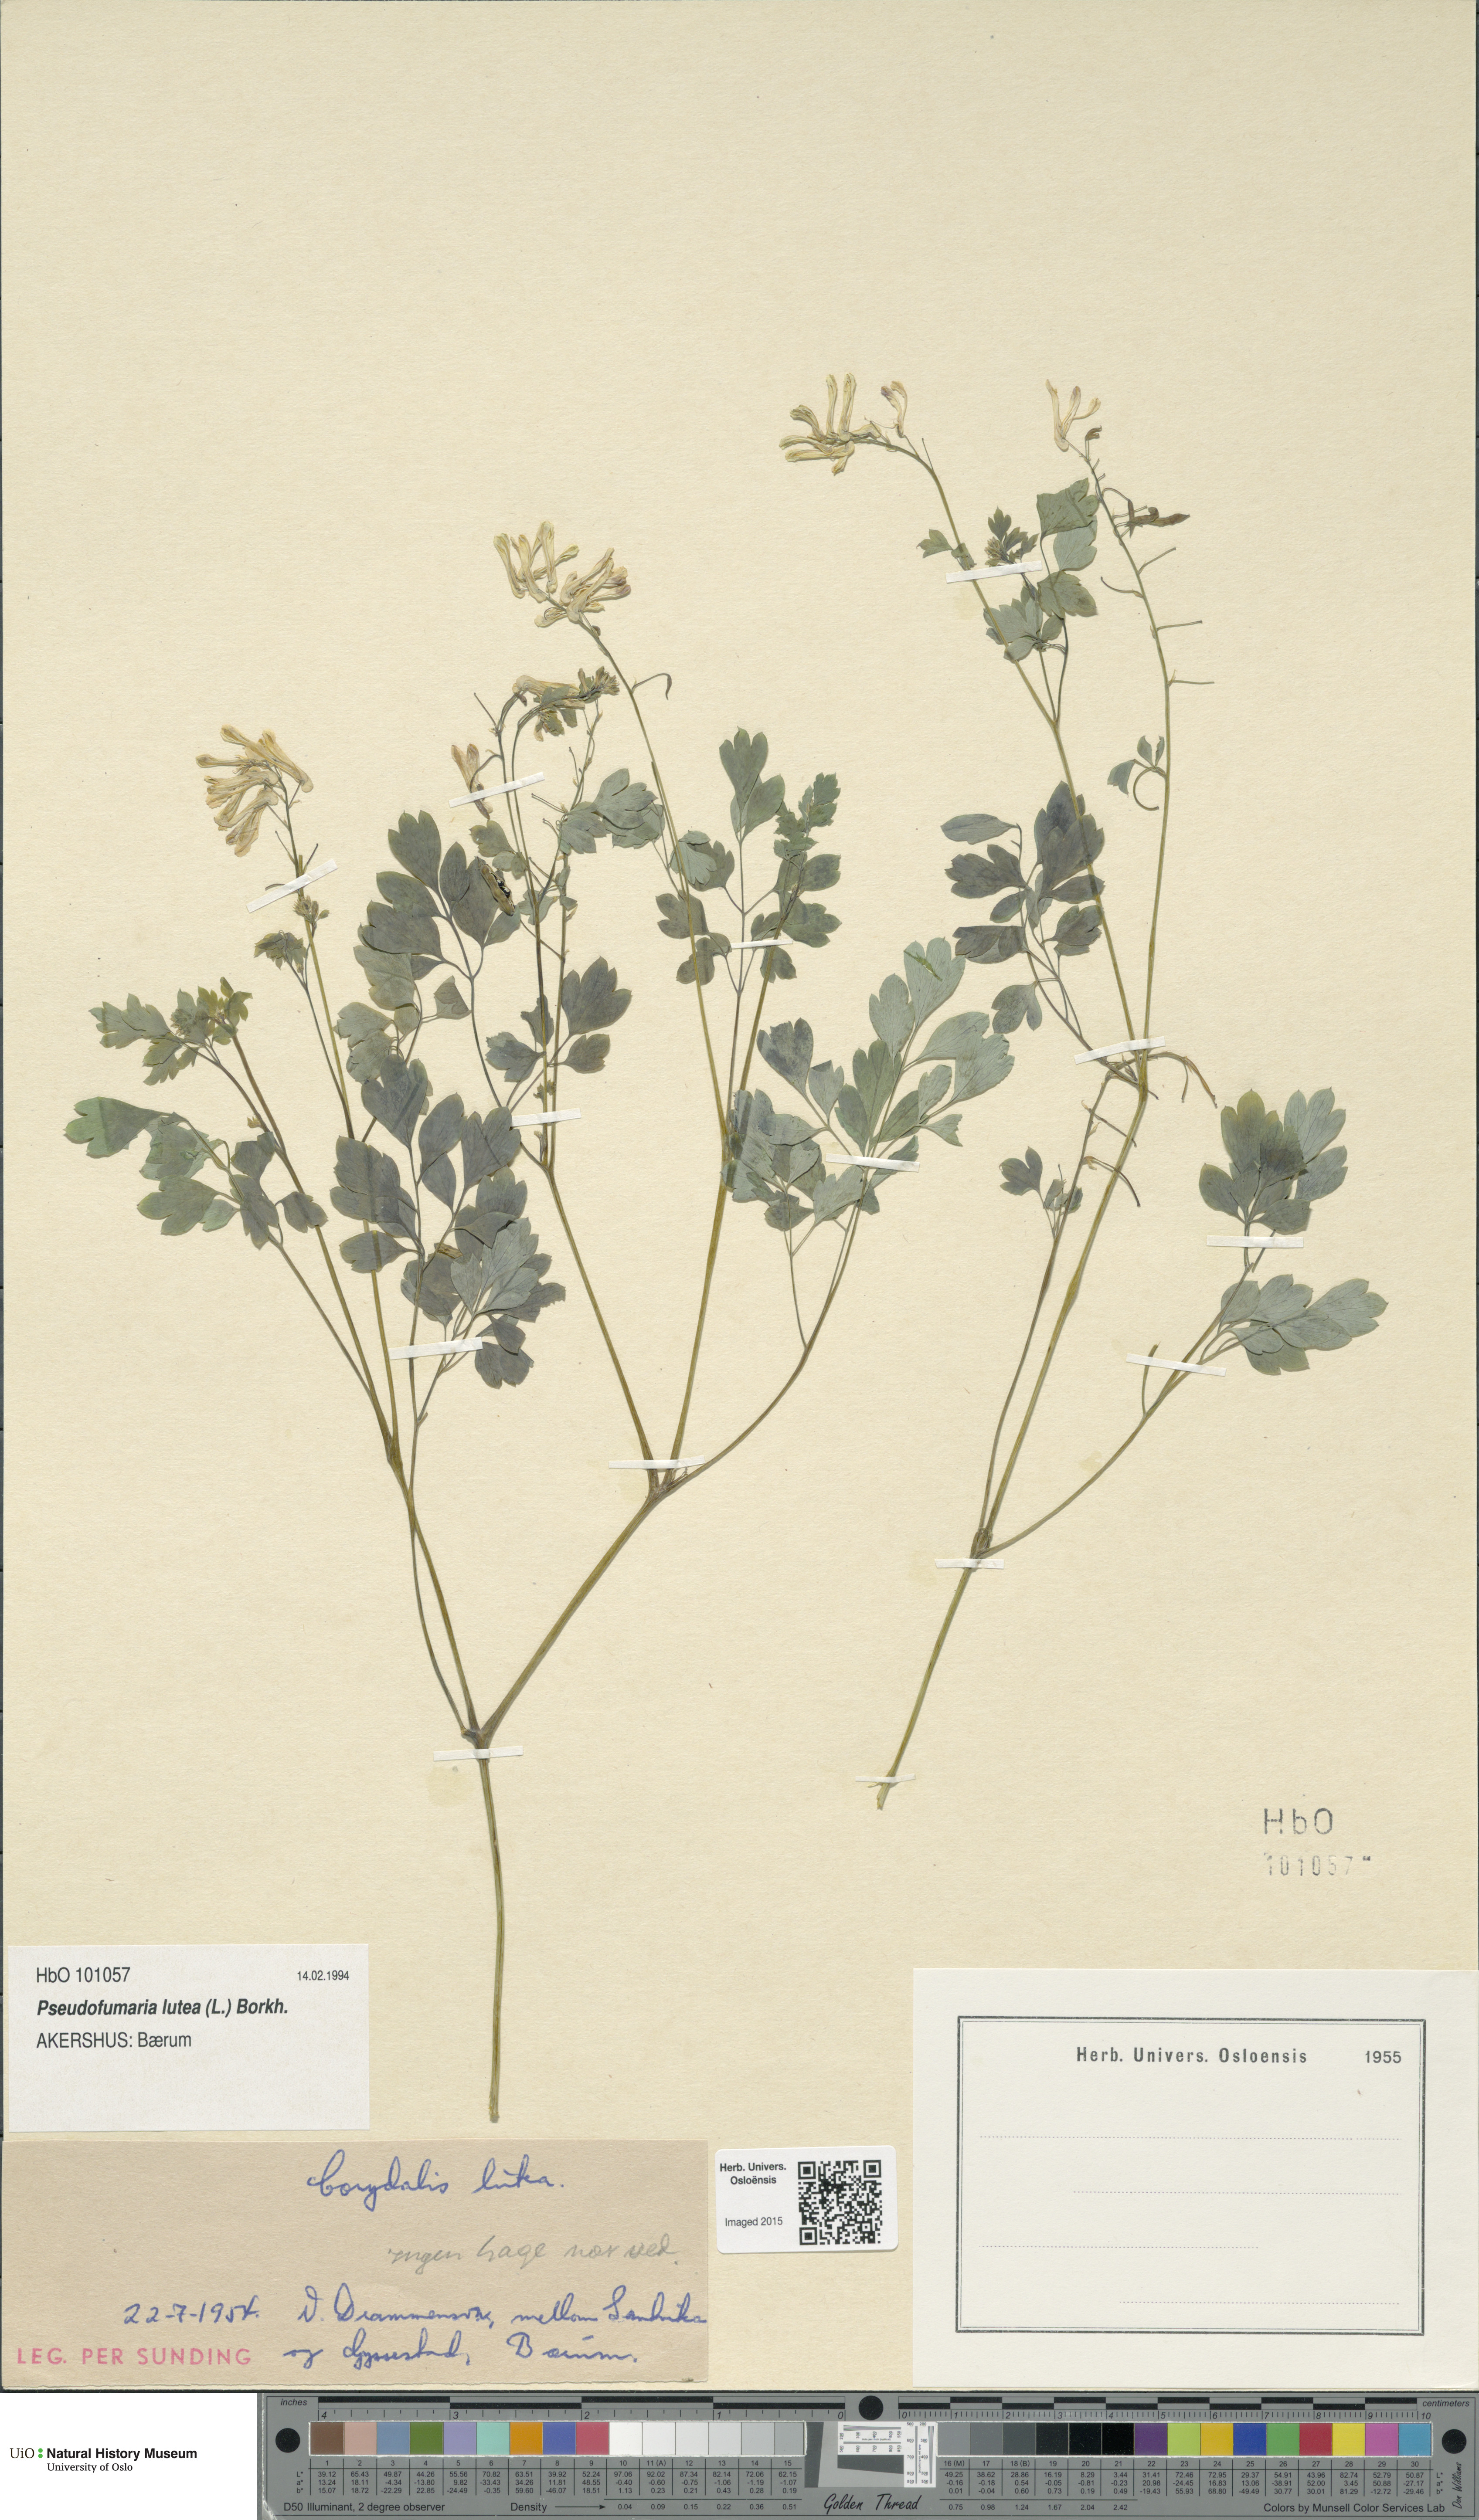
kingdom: Plantae
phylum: Tracheophyta
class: Magnoliopsida
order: Ranunculales
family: Papaveraceae
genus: Pseudofumaria
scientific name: Pseudofumaria lutea
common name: Yellow corydalis
